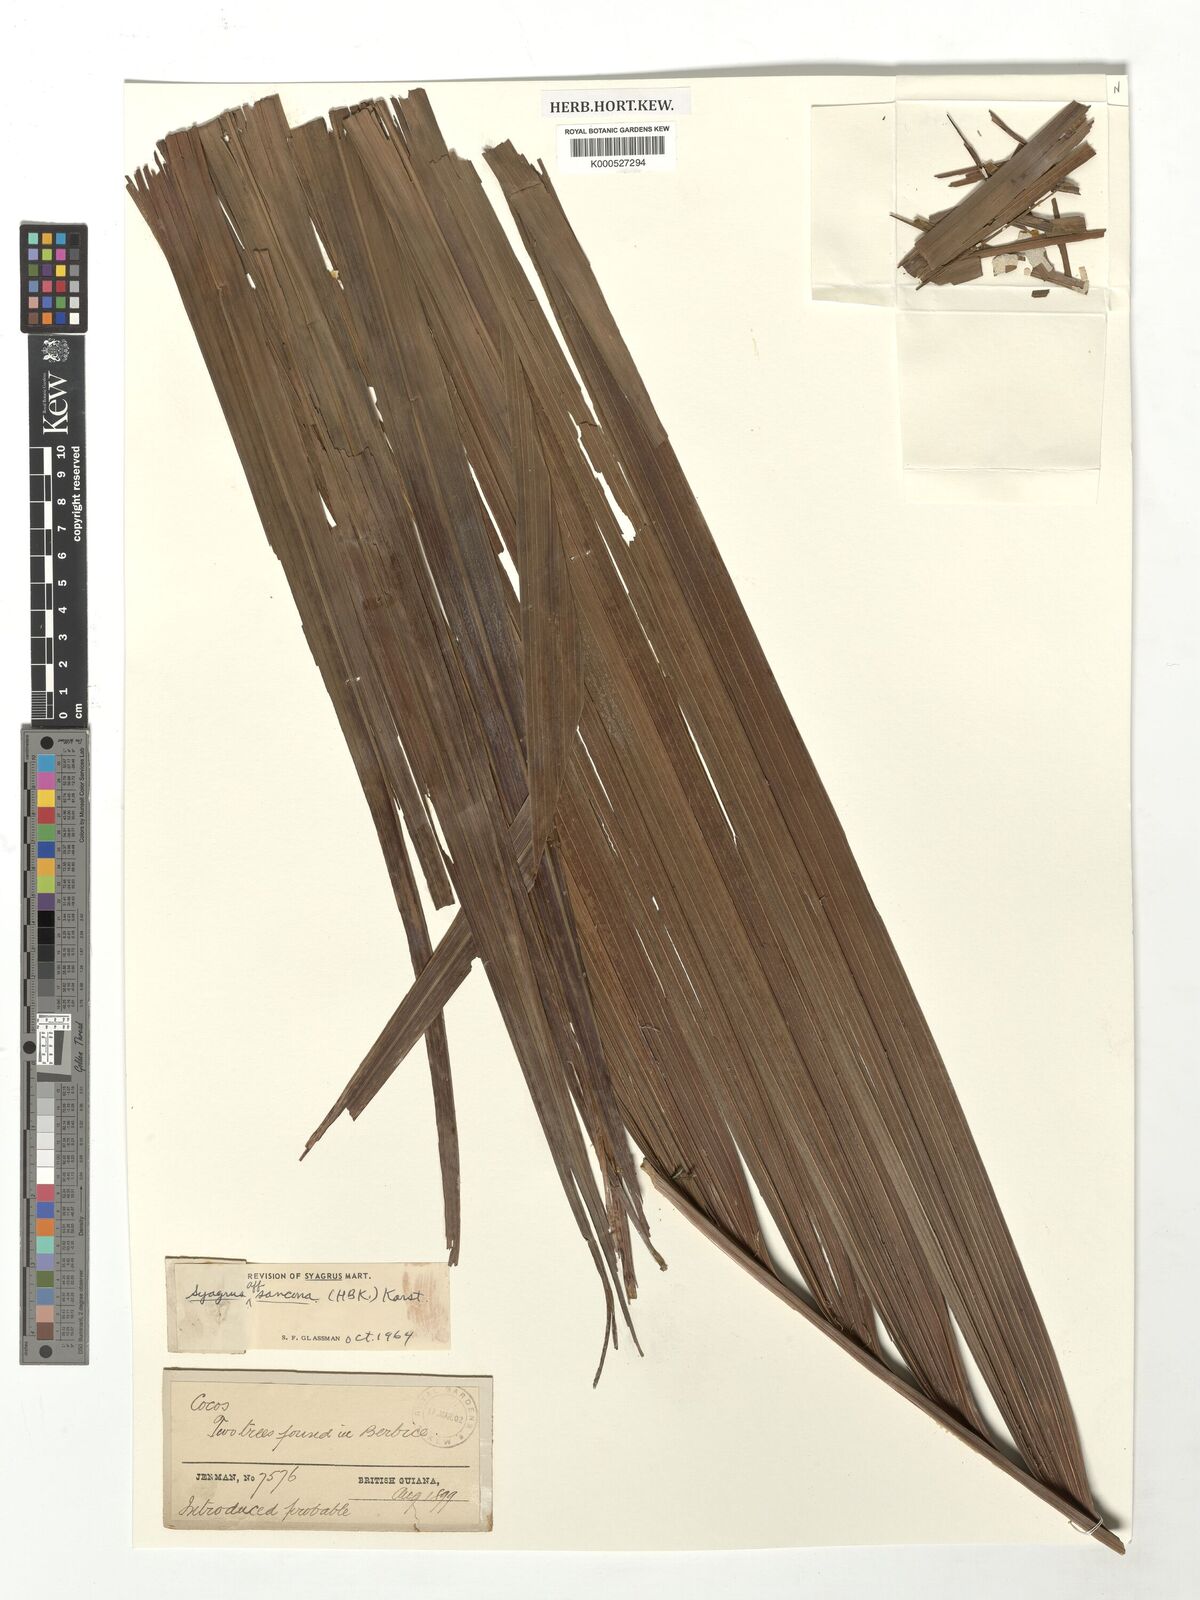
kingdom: Plantae
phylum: Tracheophyta
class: Liliopsida
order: Arecales
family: Arecaceae
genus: Syagrus
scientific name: Syagrus sancona
